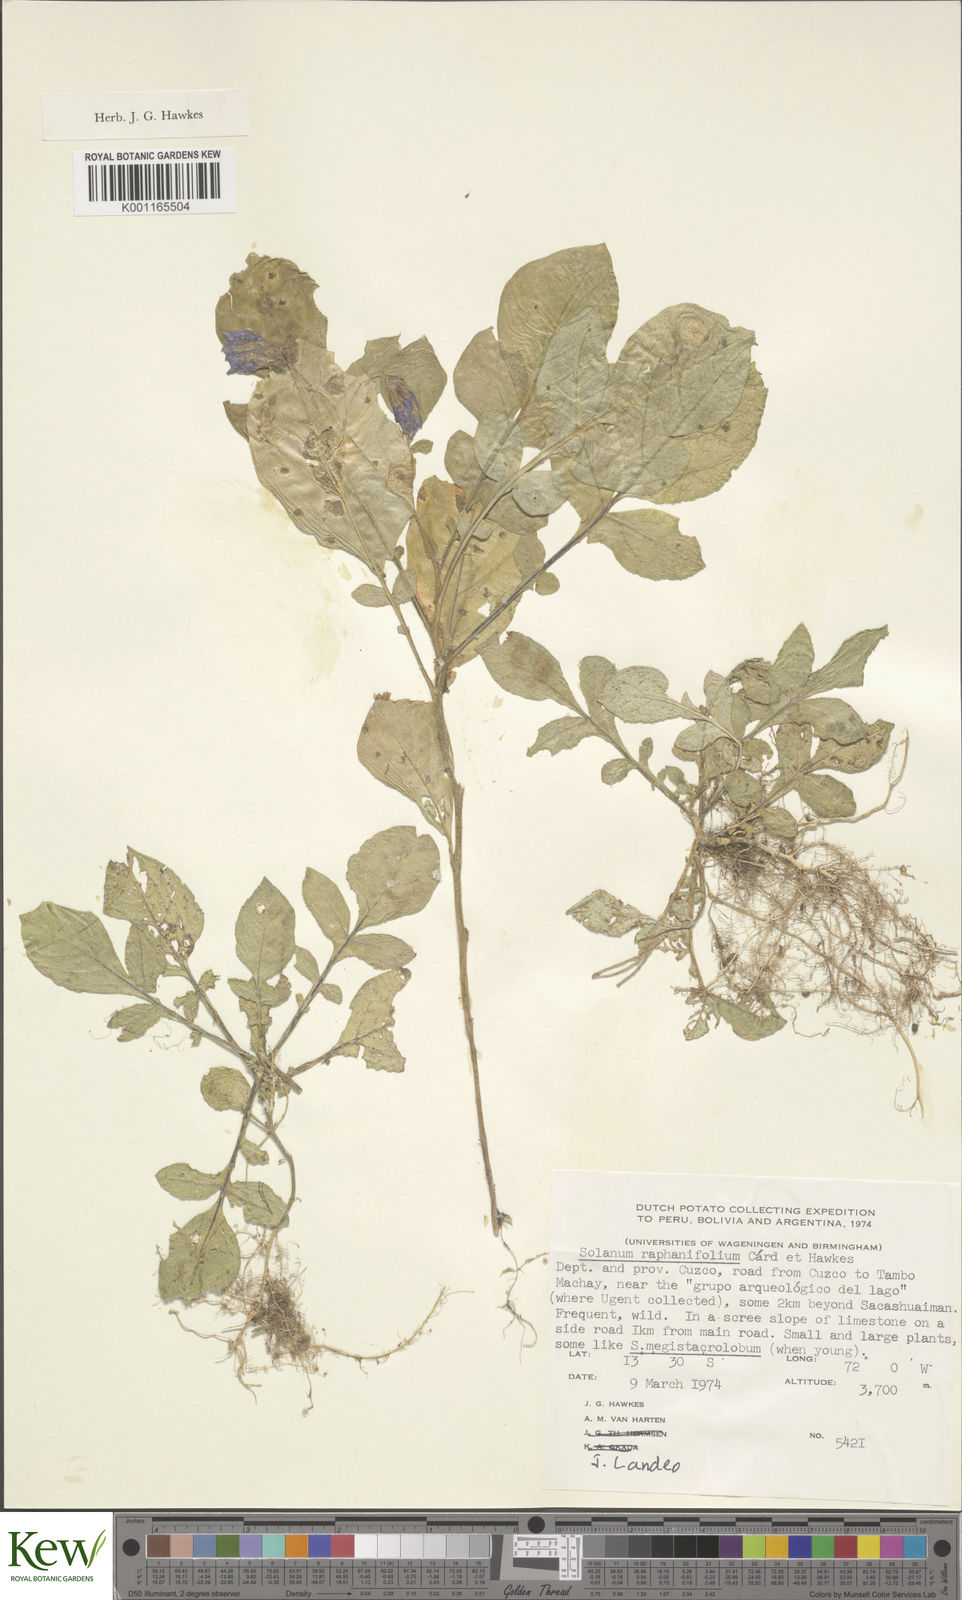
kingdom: Plantae
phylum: Tracheophyta
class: Magnoliopsida
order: Solanales
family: Solanaceae
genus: Solanum
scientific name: Solanum raphanifolium
